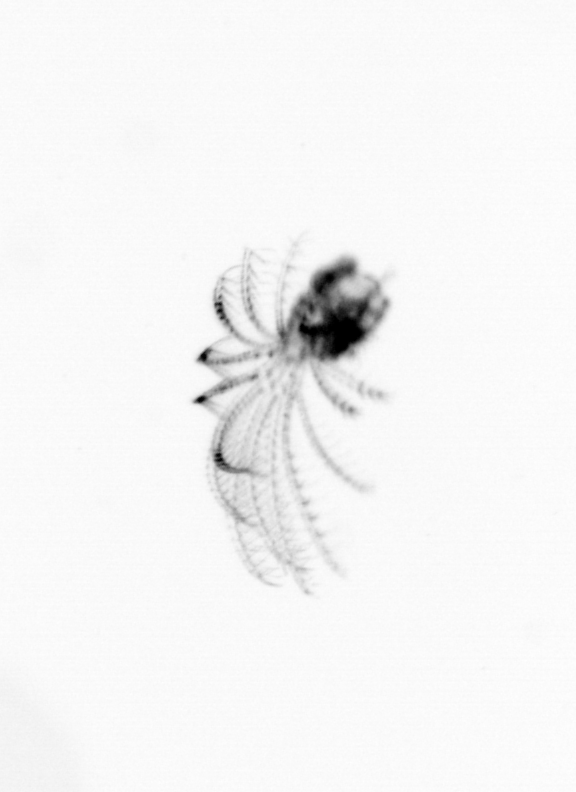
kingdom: Animalia
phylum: Arthropoda
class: Maxillopoda
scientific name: Maxillopoda
